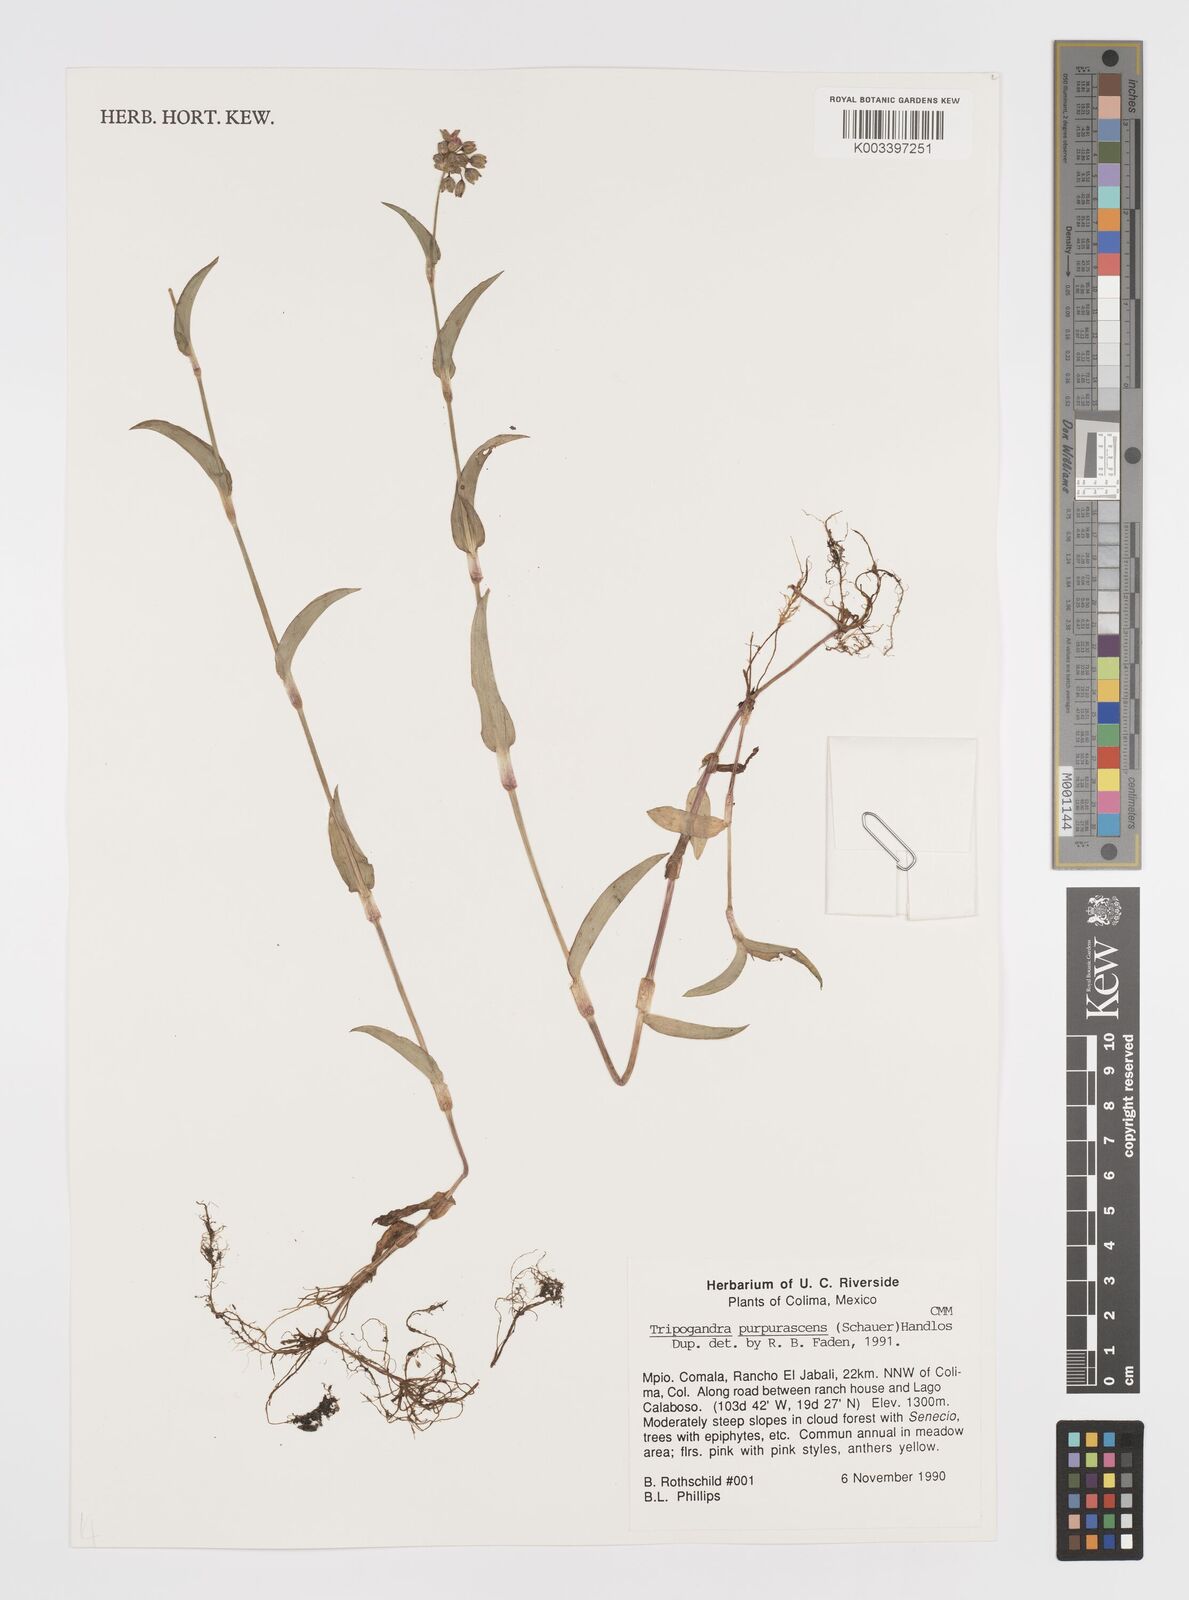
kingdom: Plantae
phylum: Tracheophyta
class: Liliopsida
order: Commelinales
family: Commelinaceae
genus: Callisia
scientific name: Callisia purpurascens
